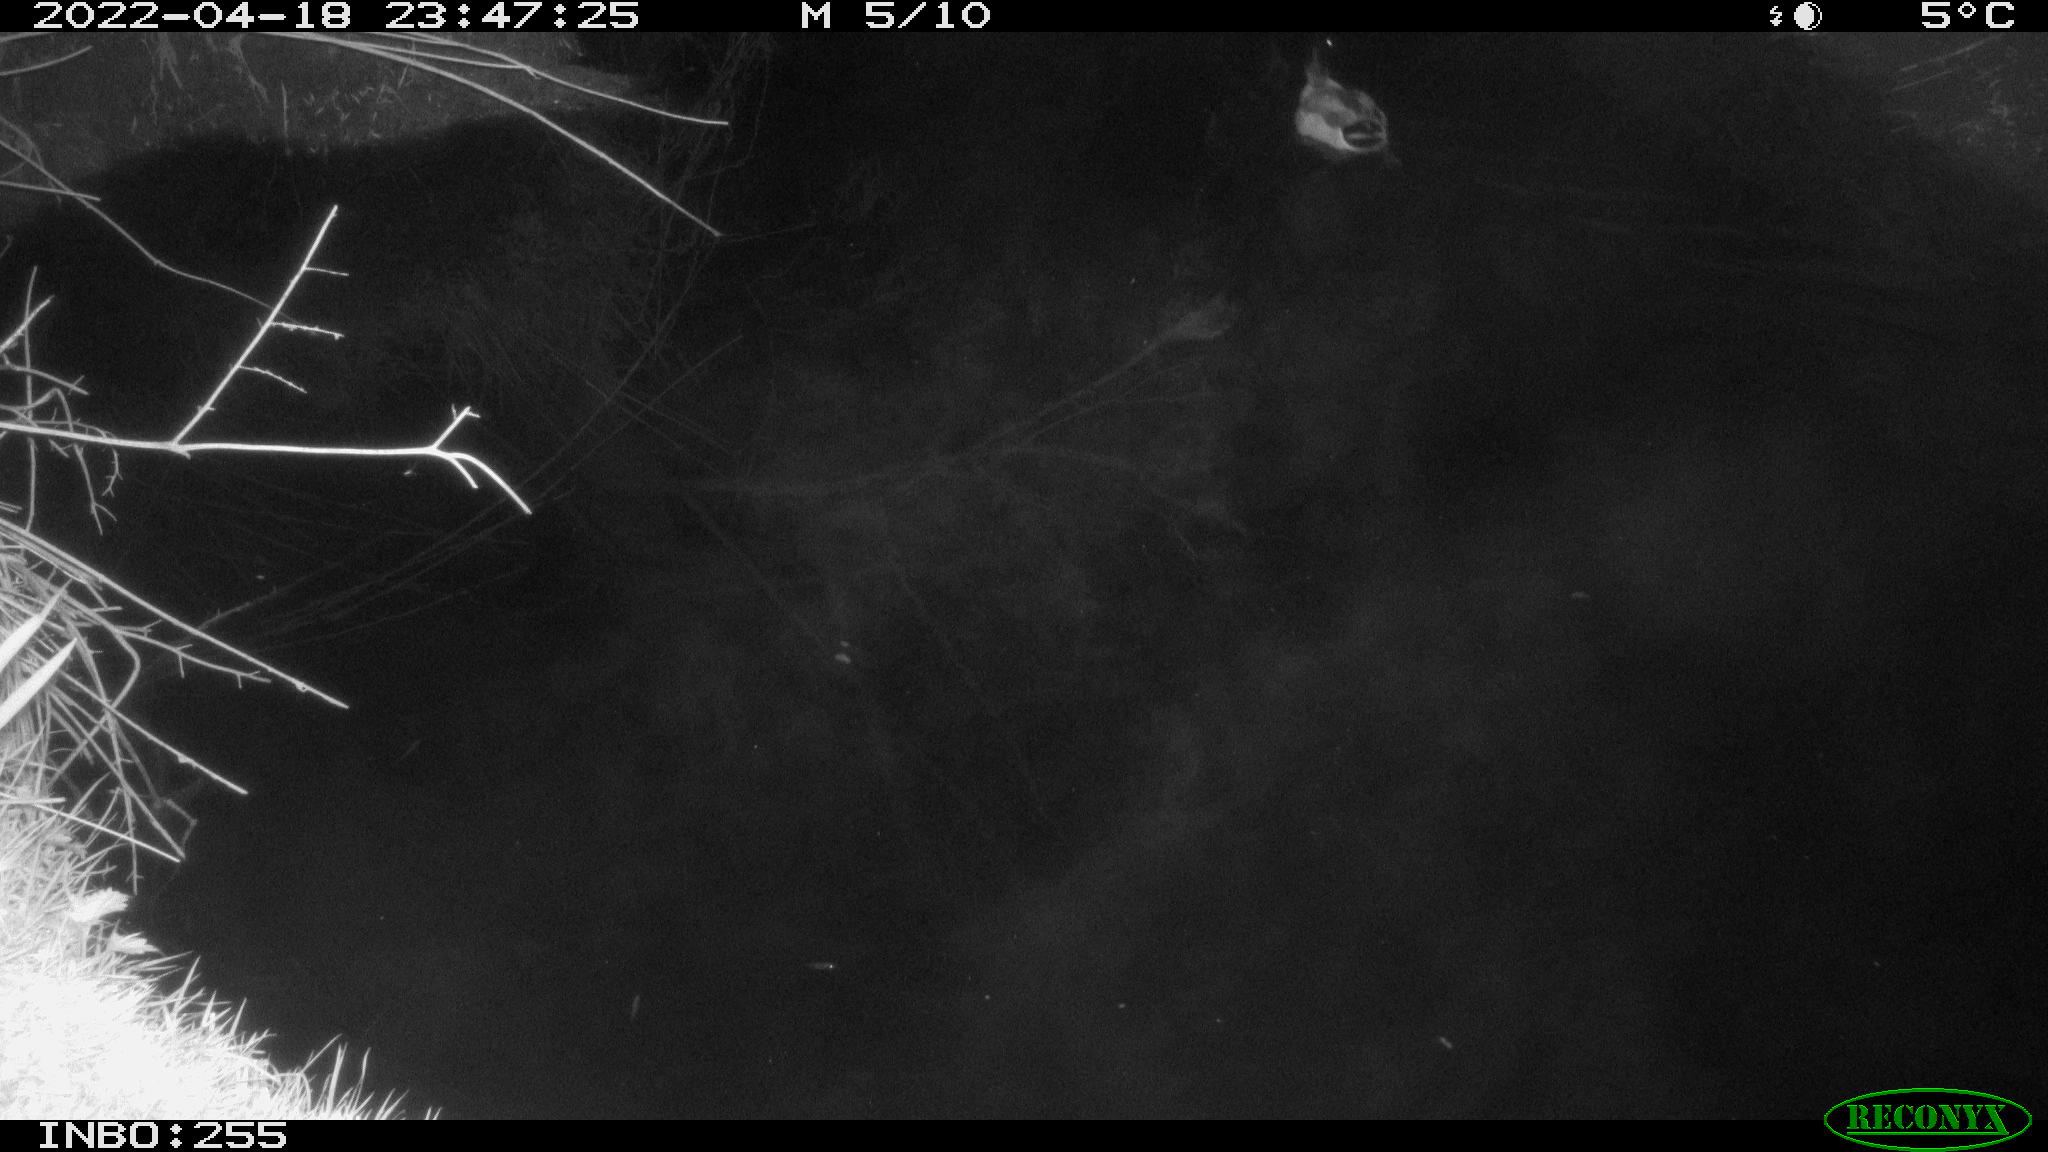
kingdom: Animalia
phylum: Chordata
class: Aves
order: Anseriformes
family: Anatidae
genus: Anas
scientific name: Anas platyrhynchos
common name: Mallard
